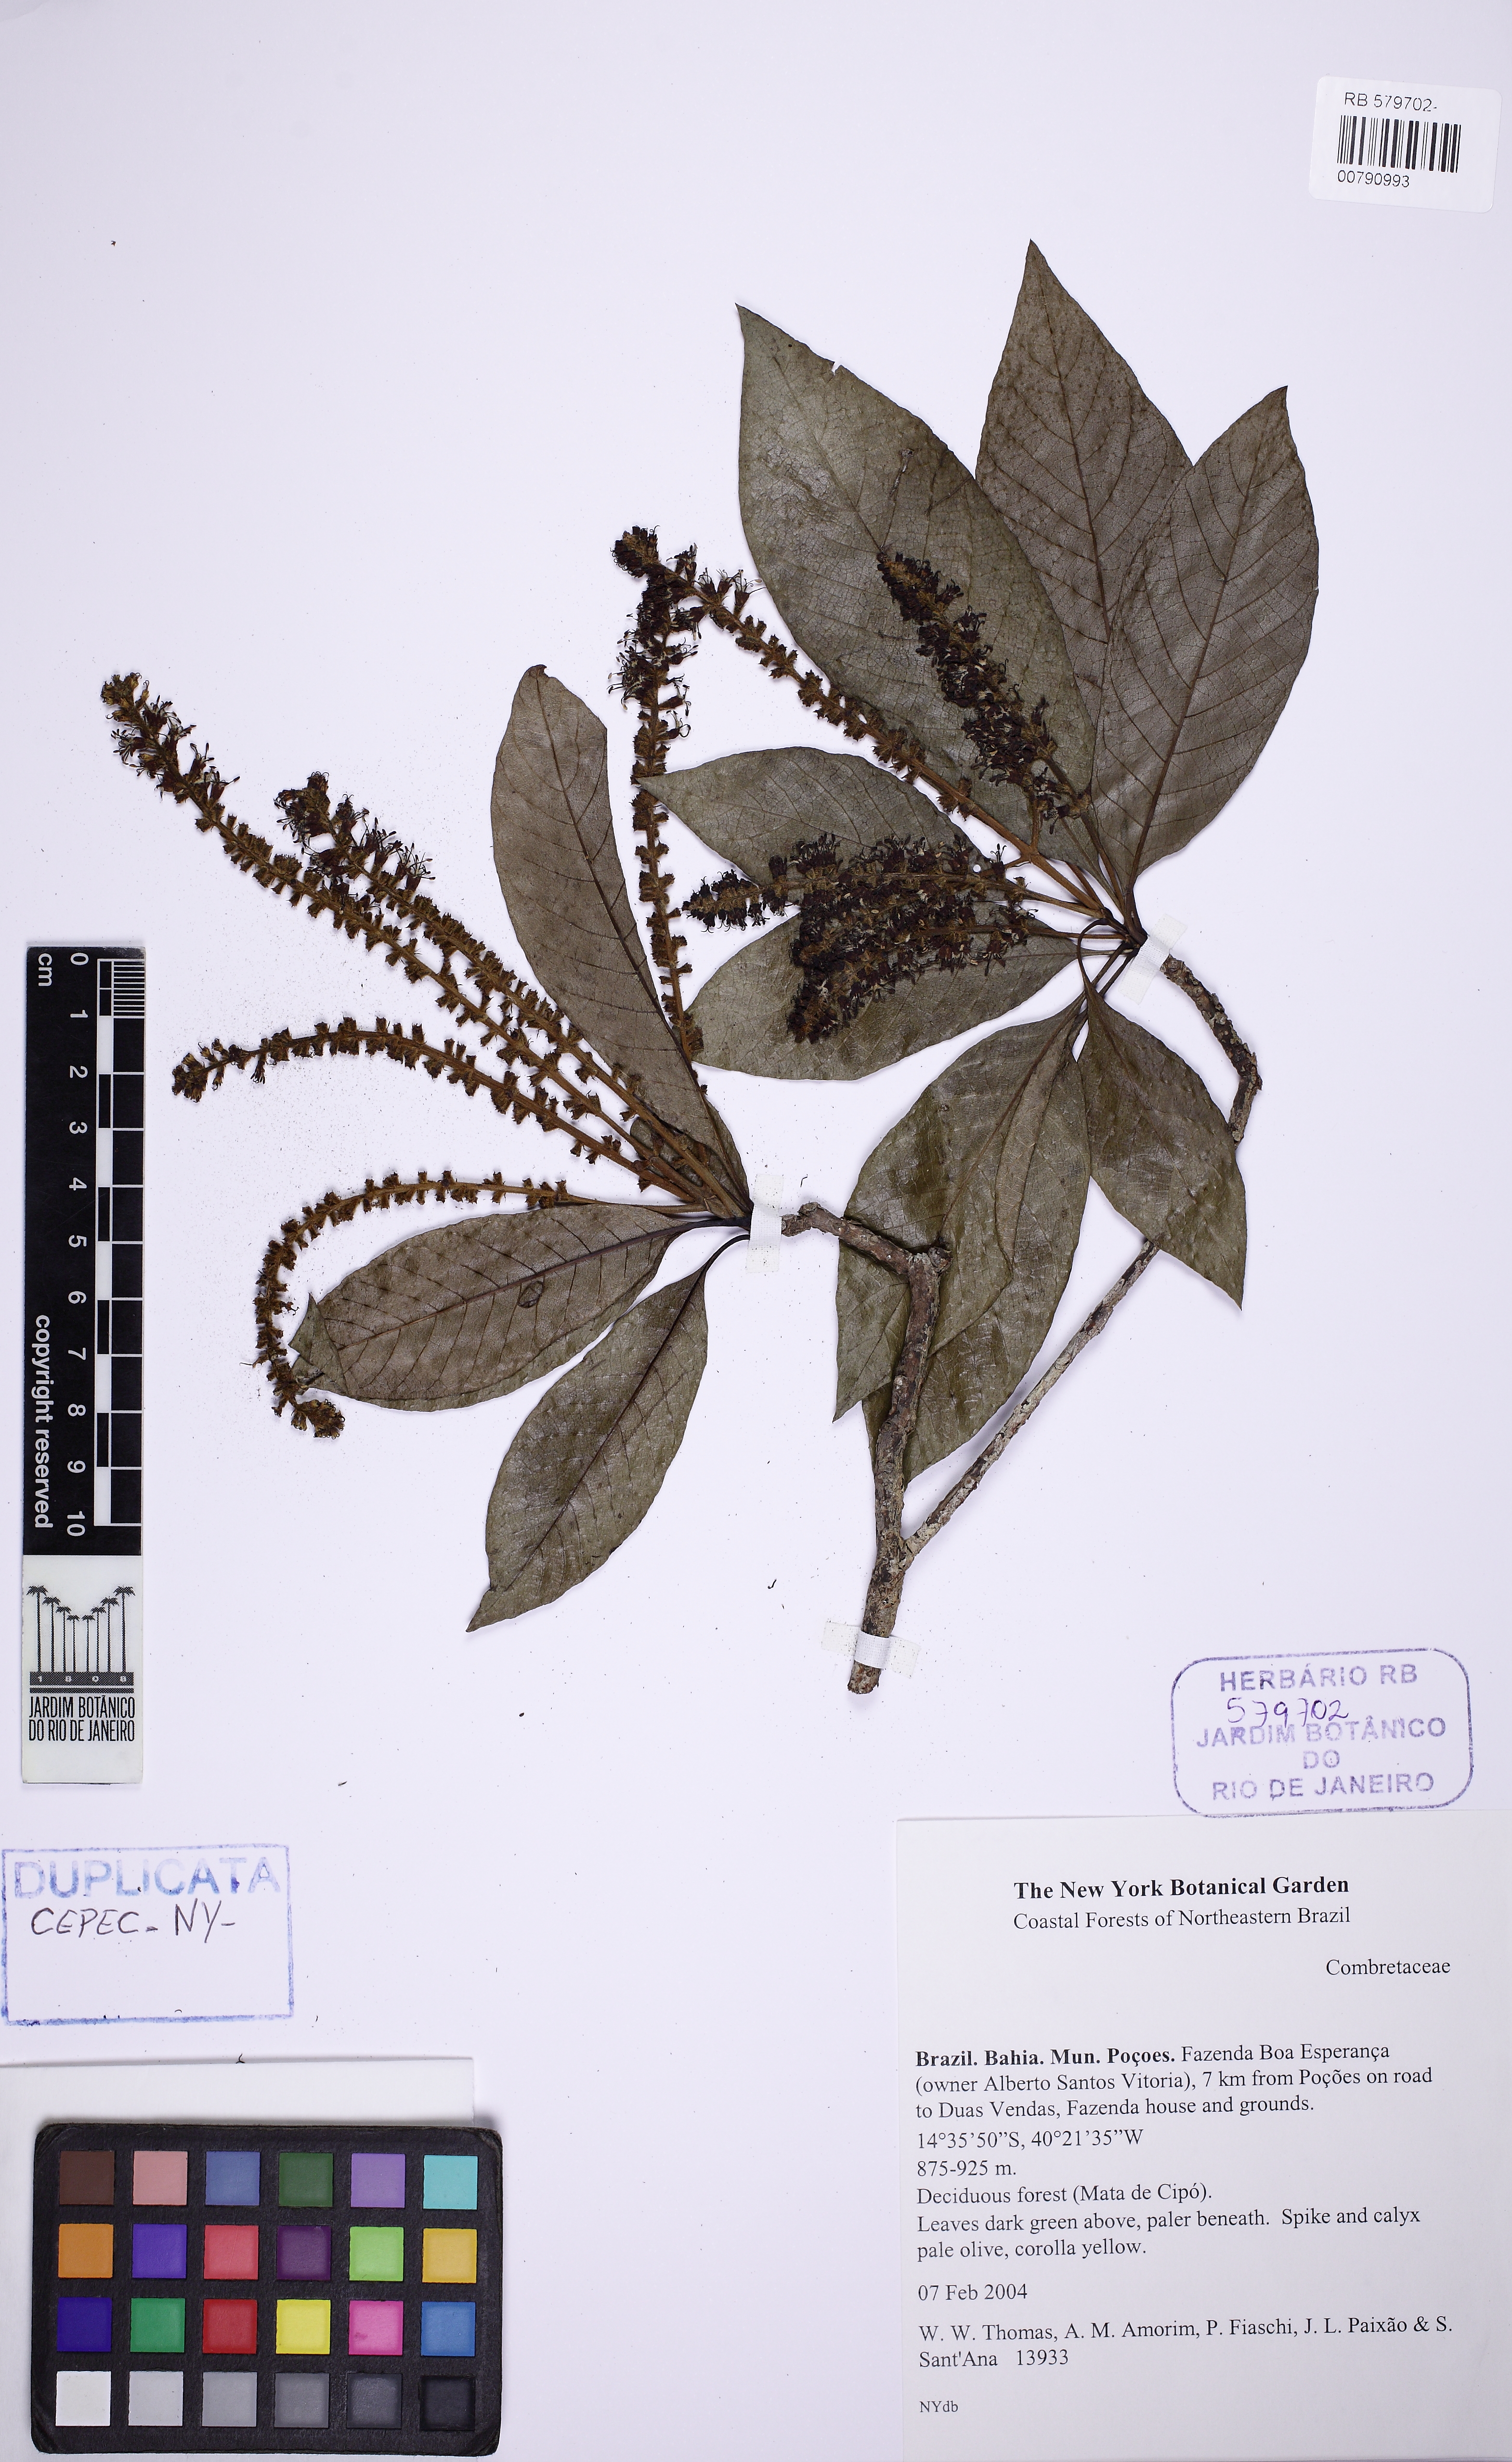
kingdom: Plantae
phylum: Tracheophyta
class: Magnoliopsida
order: Gentianales
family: Rubiaceae
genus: Alseis
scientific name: Alseis floribunda
